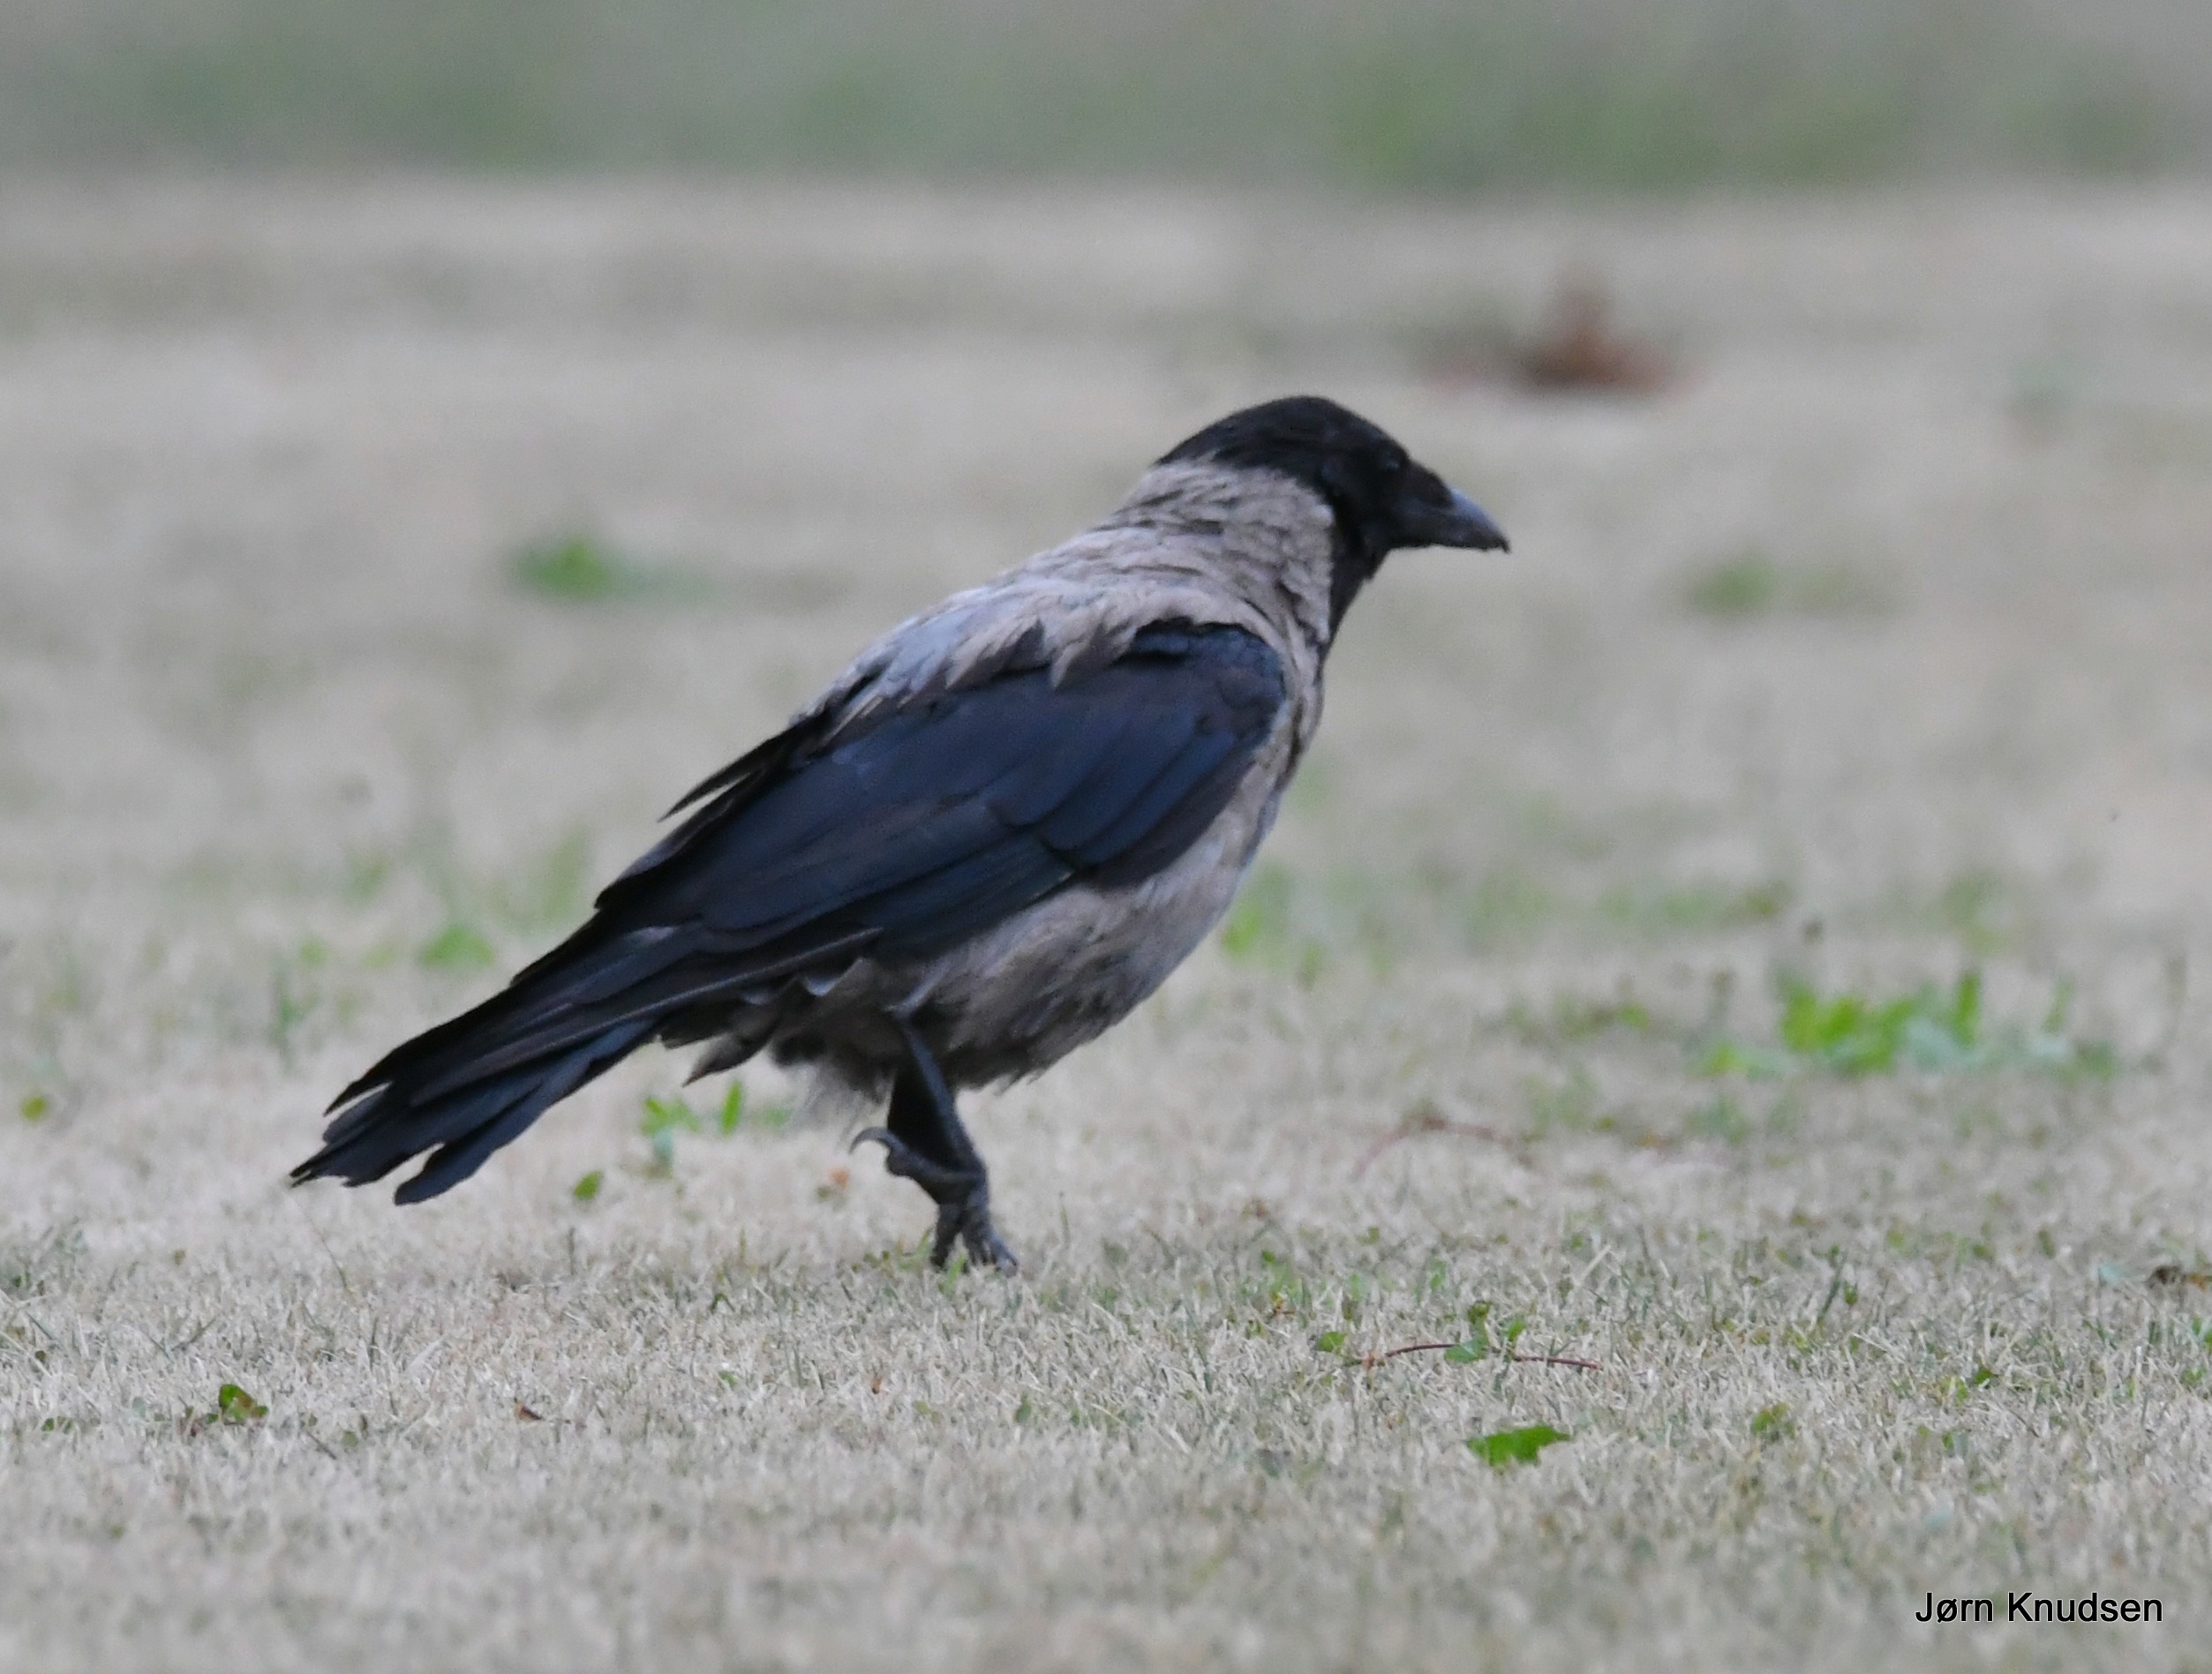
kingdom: Animalia
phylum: Chordata
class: Aves
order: Passeriformes
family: Corvidae
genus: Corvus
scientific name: Corvus cornix
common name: Gråkrage
